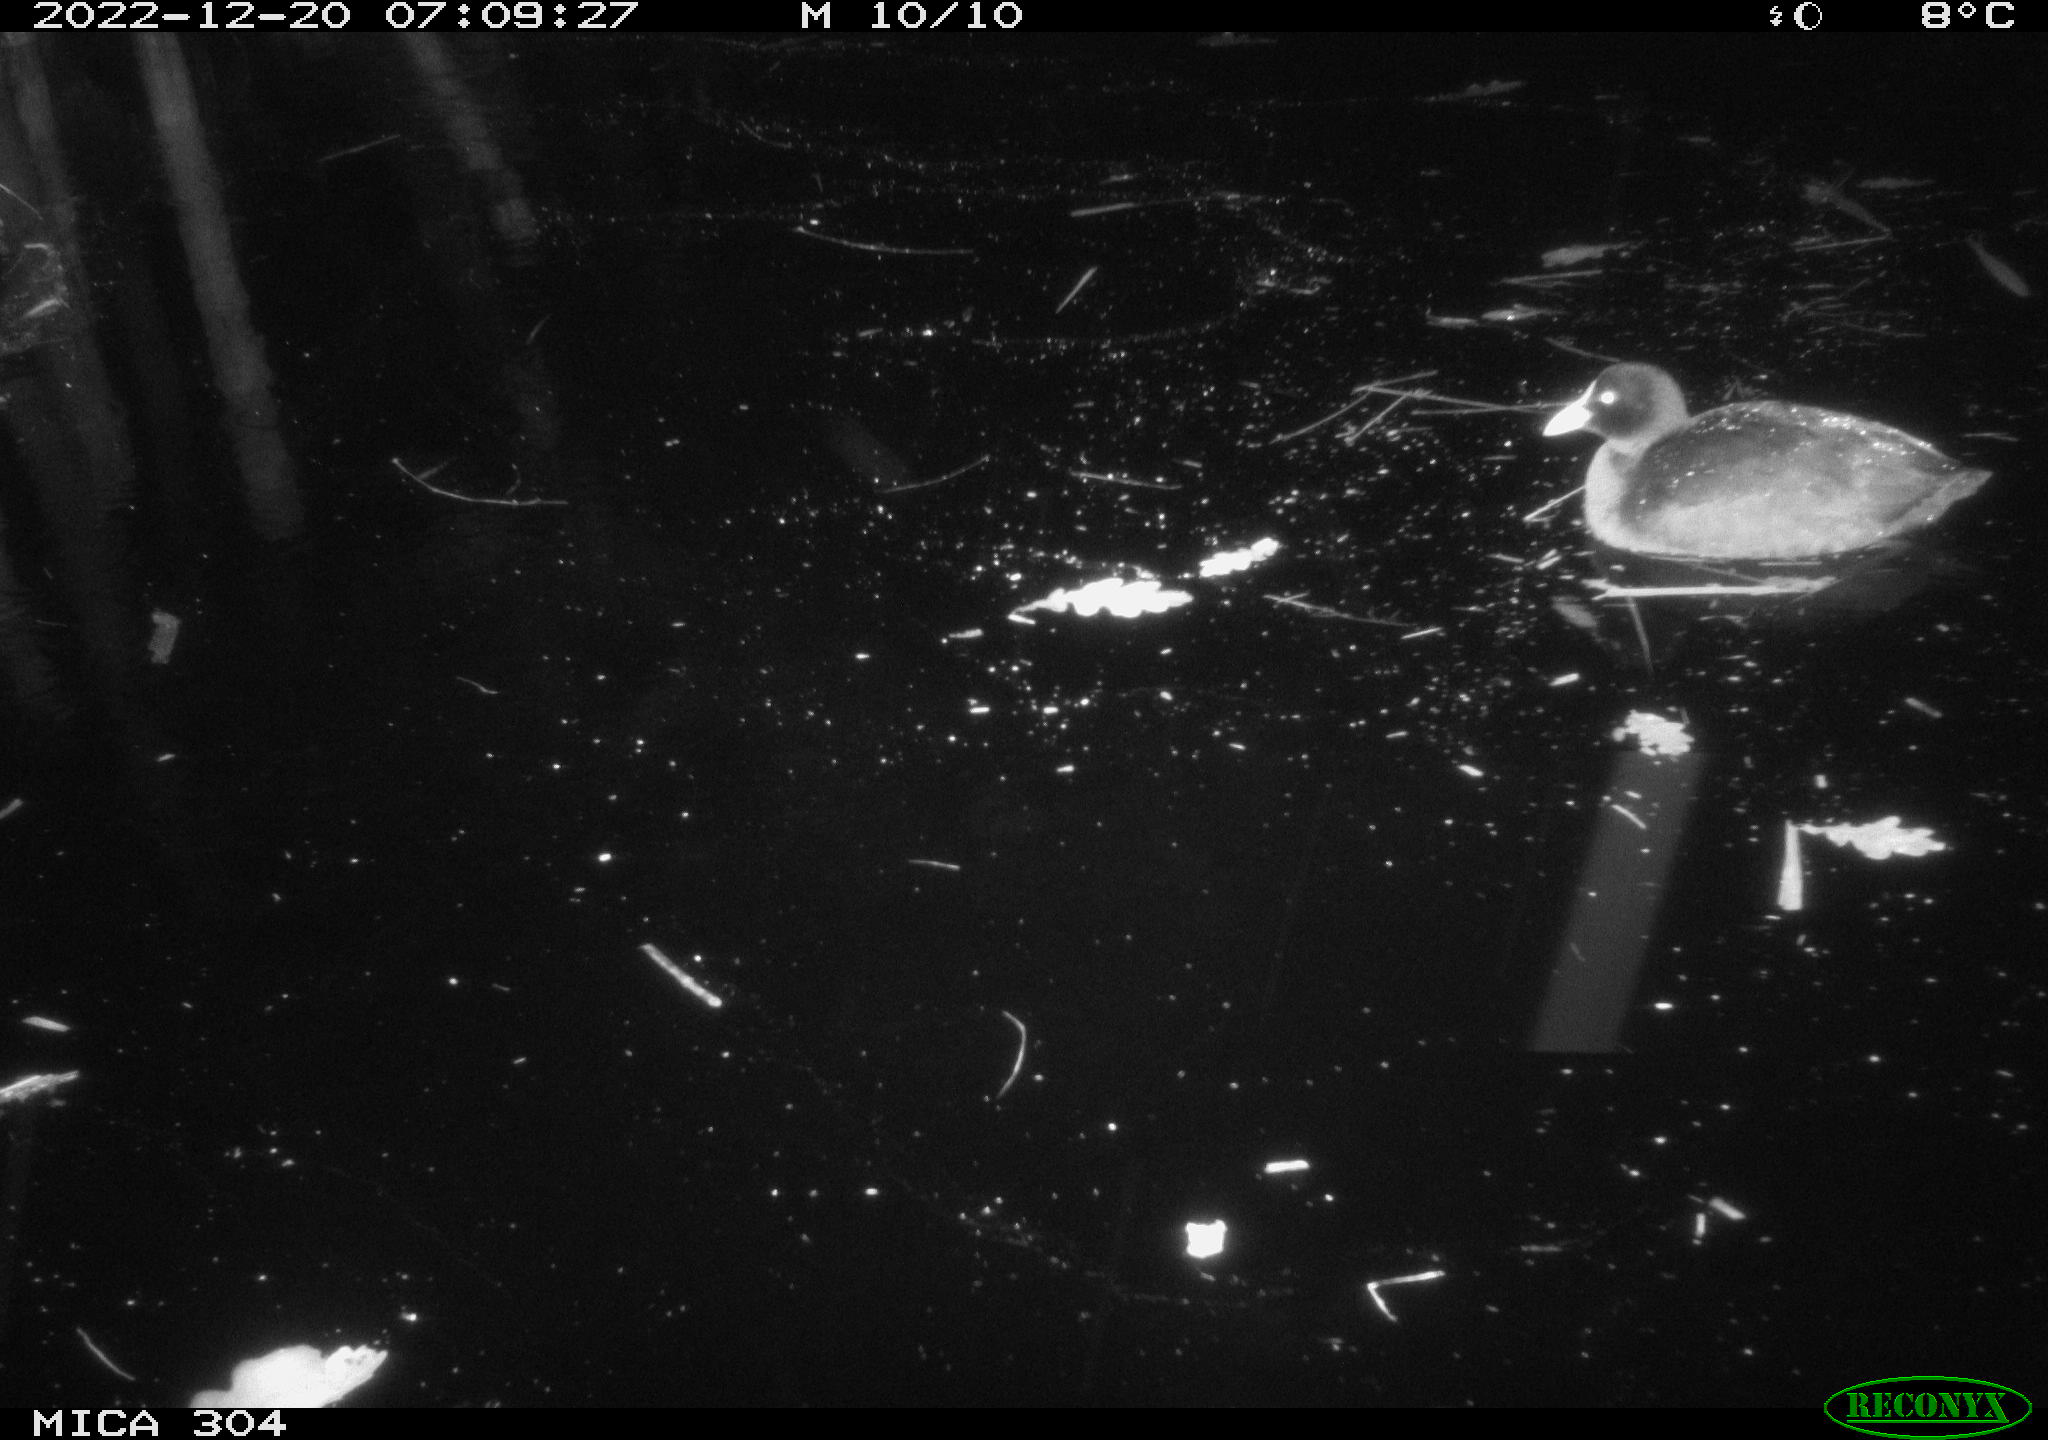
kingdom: Animalia
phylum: Chordata
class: Aves
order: Gruiformes
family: Rallidae
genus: Gallinula
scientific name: Gallinula chloropus
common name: Common moorhen
